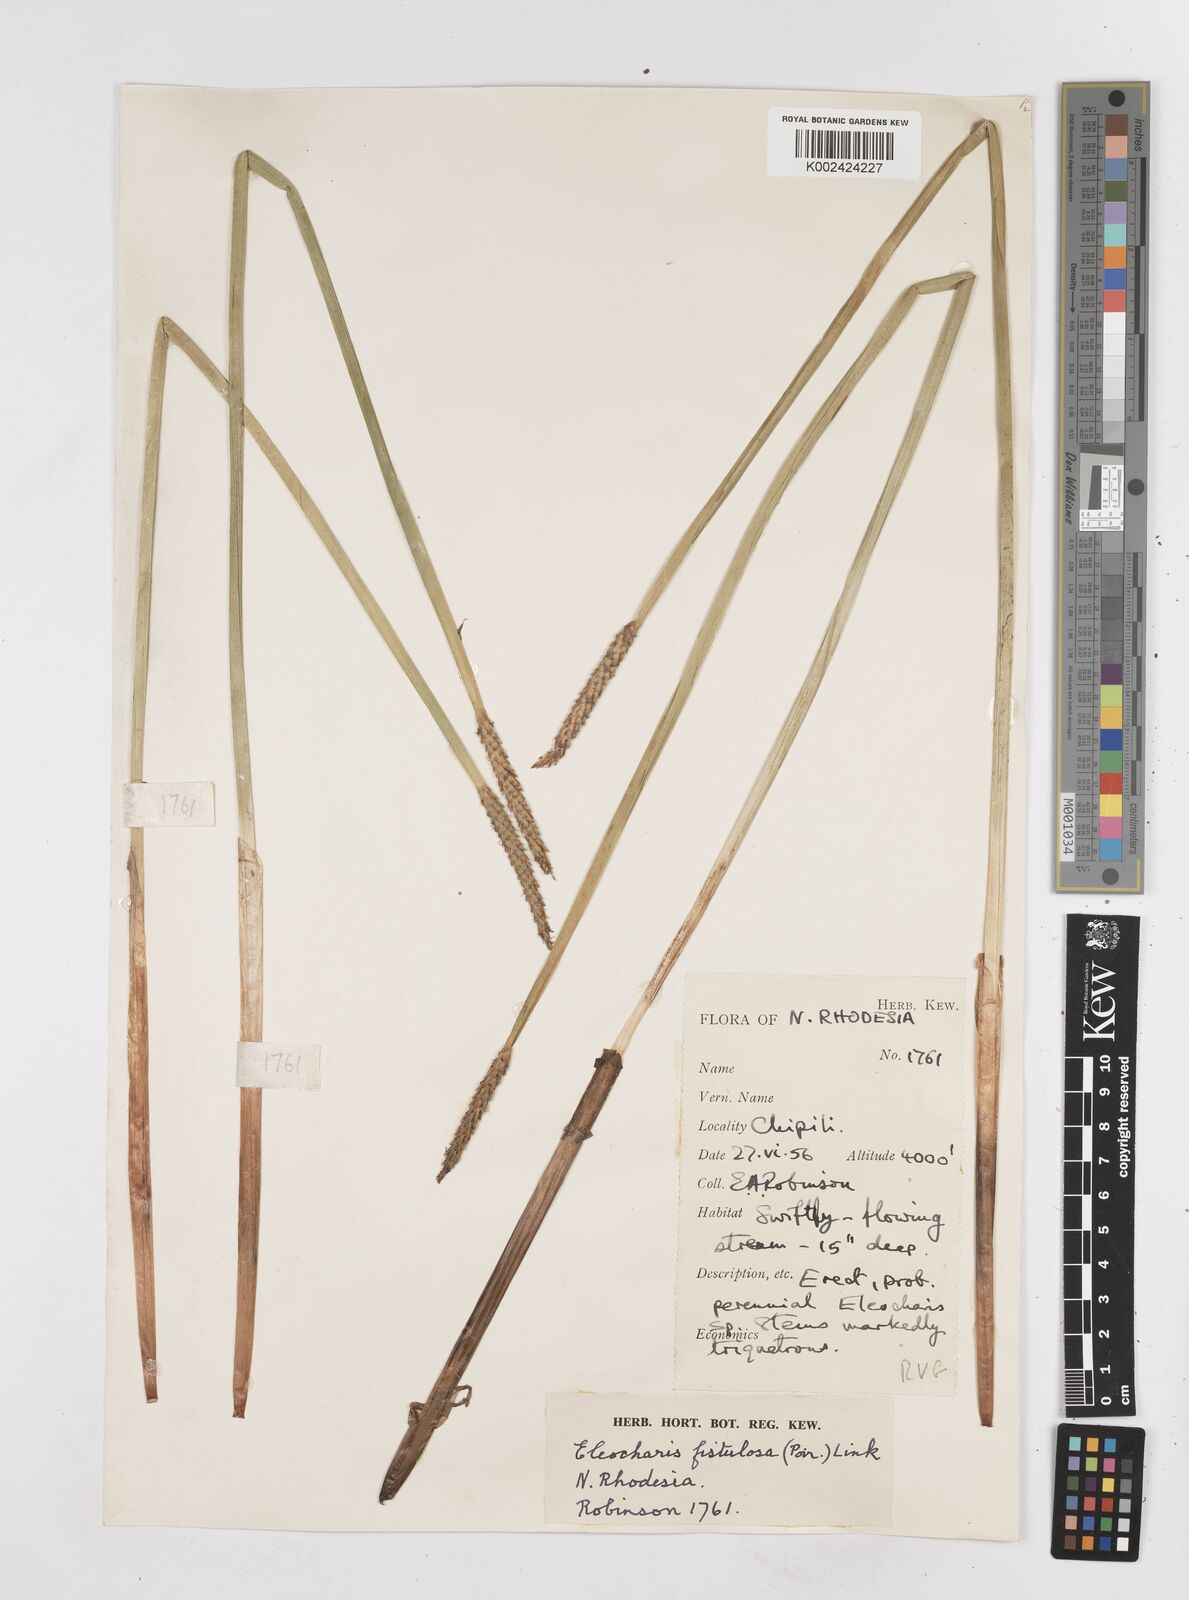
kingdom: Plantae
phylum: Tracheophyta
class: Liliopsida
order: Poales
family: Cyperaceae
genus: Eleocharis
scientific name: Eleocharis acutangula
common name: Acute spikerush
